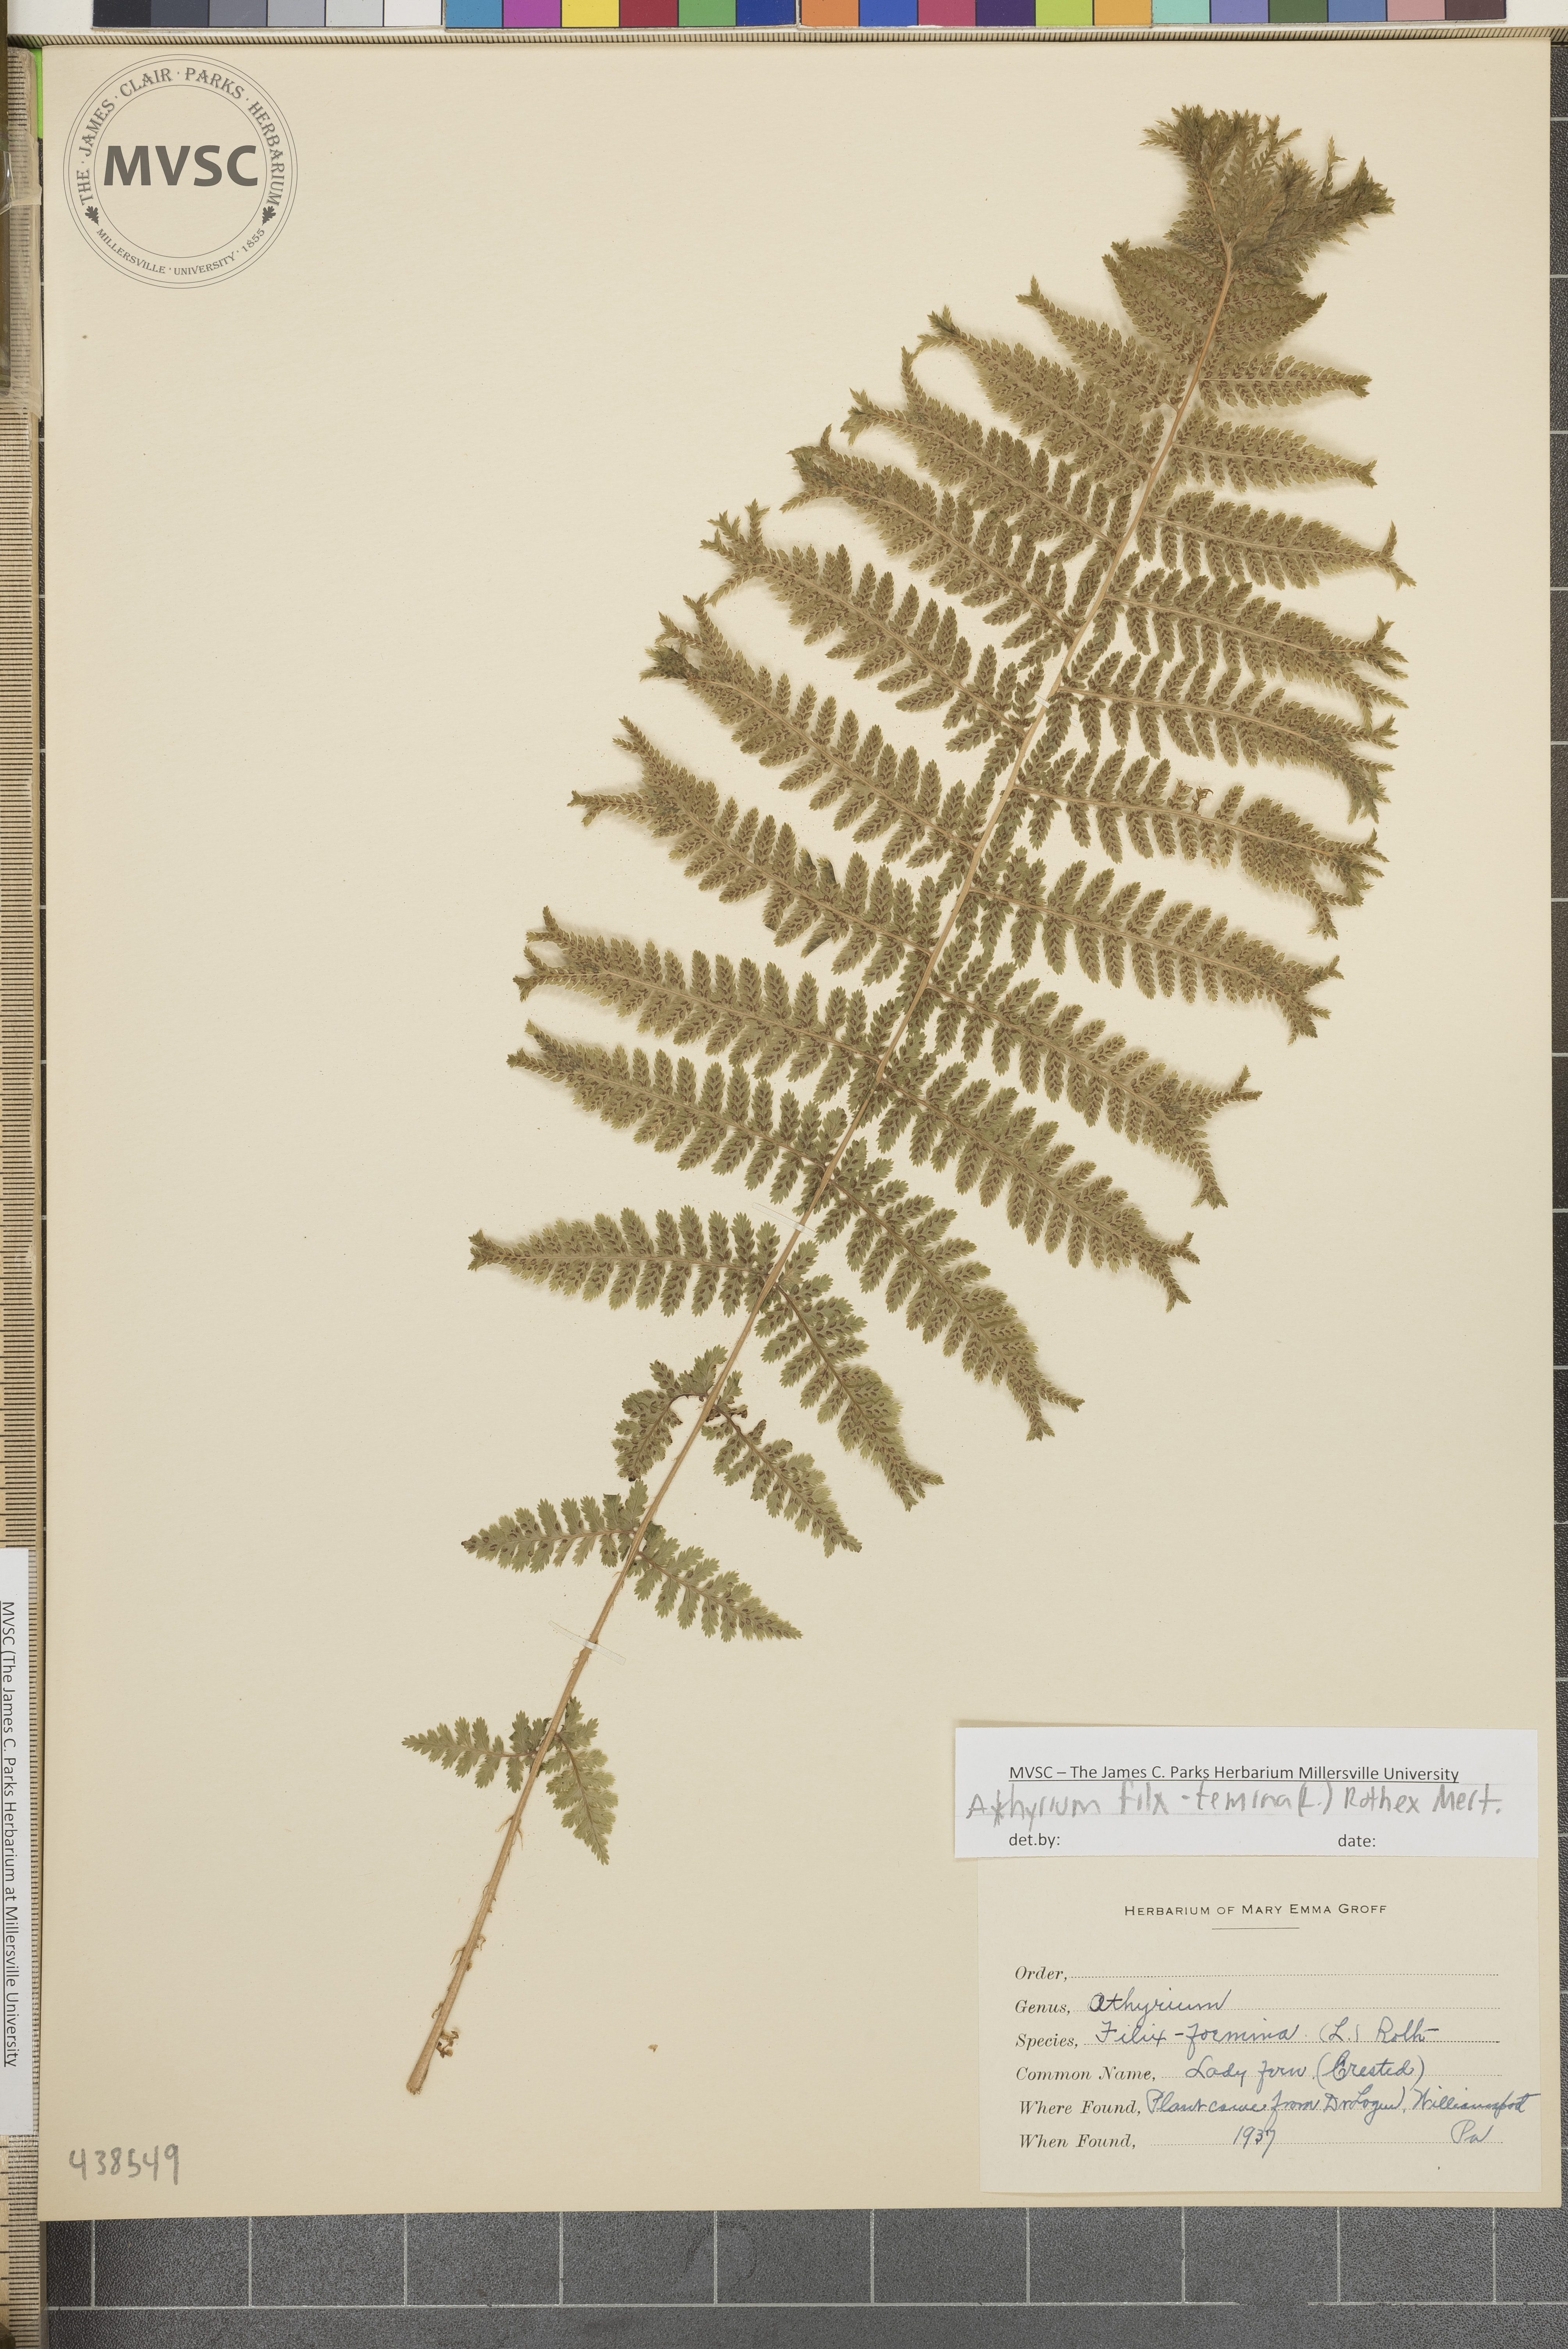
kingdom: Plantae
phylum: Tracheophyta
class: Polypodiopsida
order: Polypodiales
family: Athyriaceae
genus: Athyrium
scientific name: Athyrium filix-femina
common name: Lady fern
